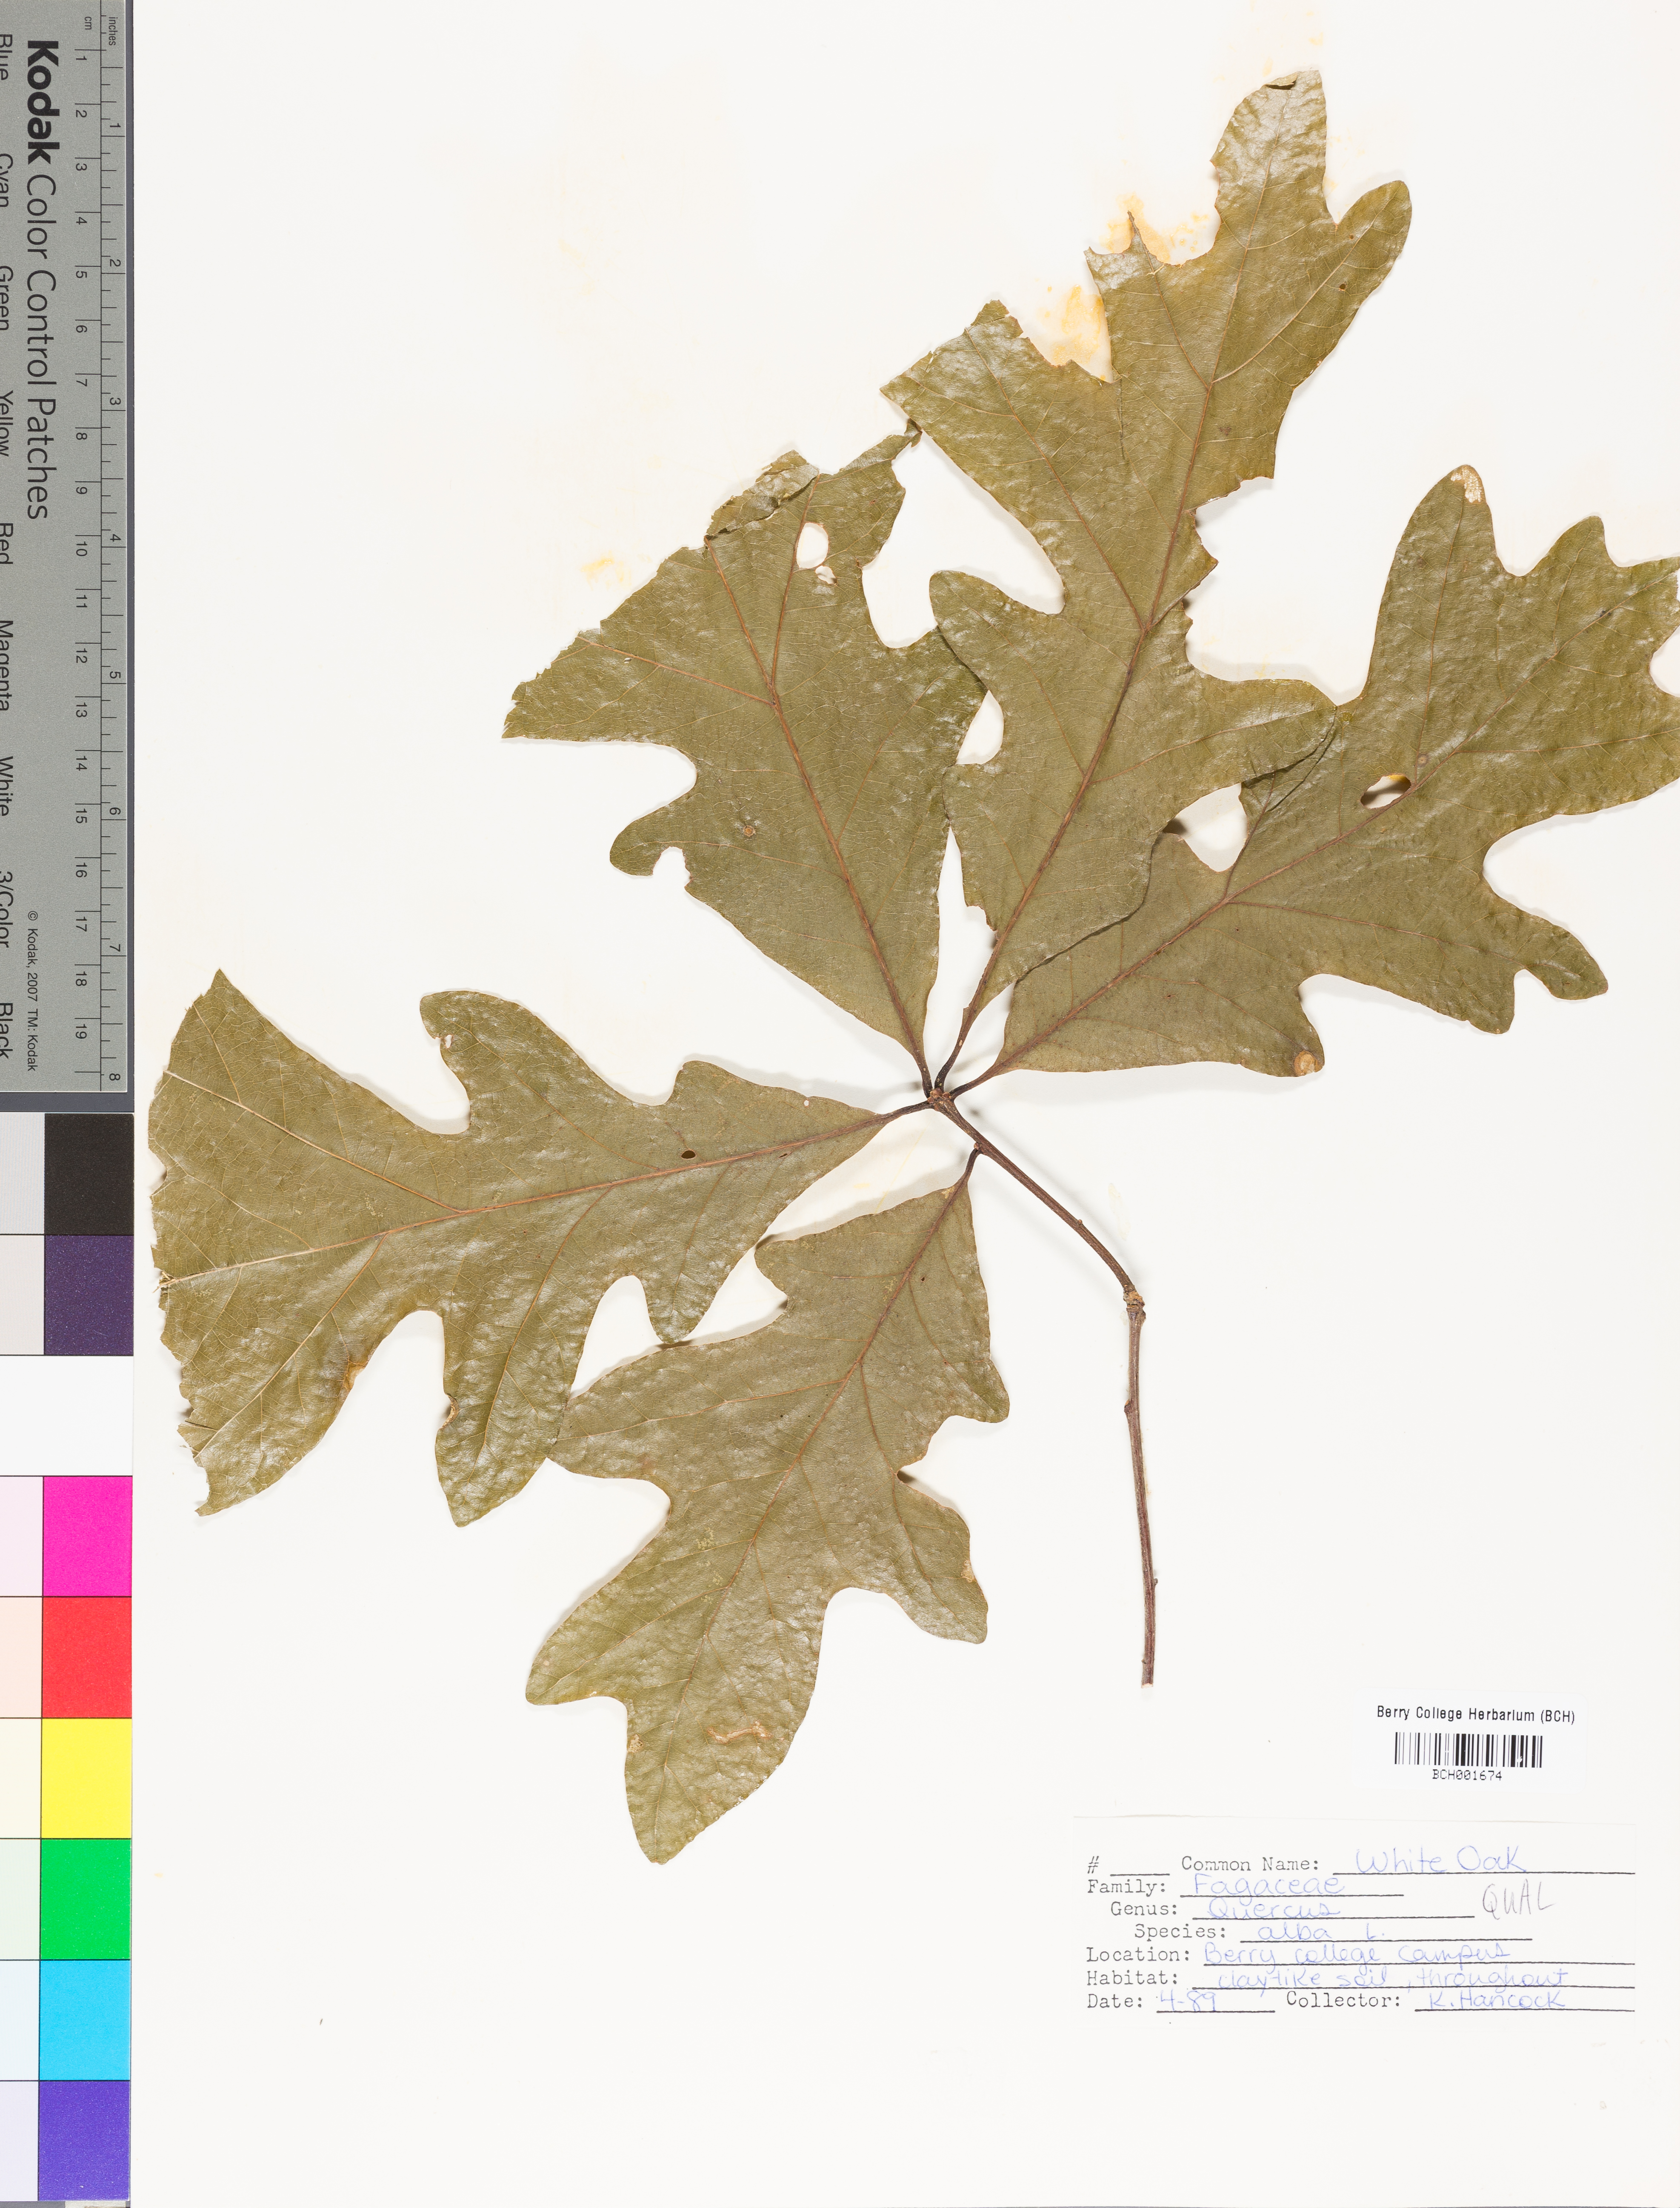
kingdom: Plantae
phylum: Tracheophyta
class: Magnoliopsida
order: Fagales
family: Fagaceae
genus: Quercus
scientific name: Quercus alba
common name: White oak
